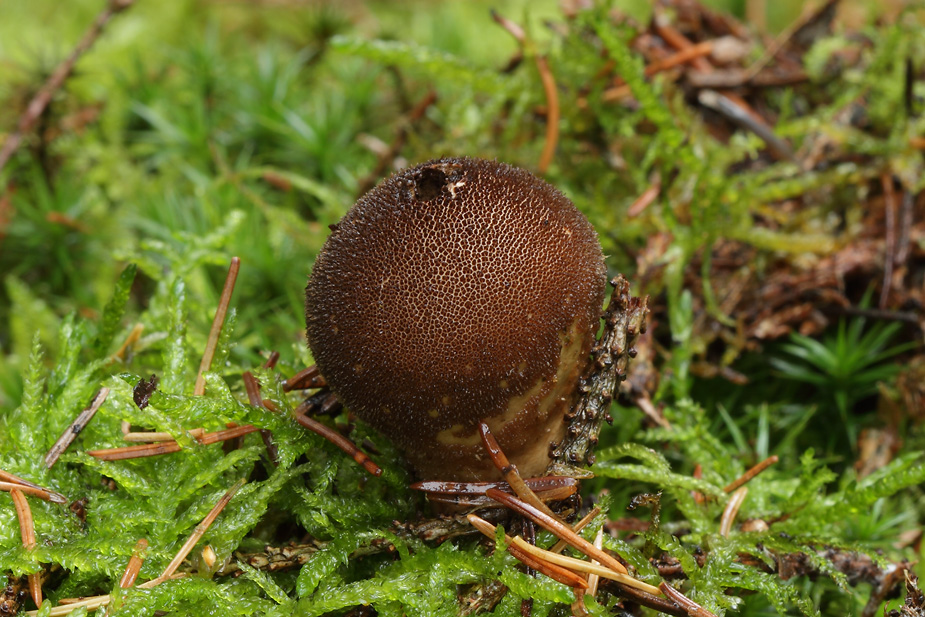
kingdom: Fungi
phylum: Basidiomycota
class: Agaricomycetes
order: Agaricales
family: Lycoperdaceae
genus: Lycoperdon
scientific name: Lycoperdon umbrinum
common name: umbrabrun støvbold
